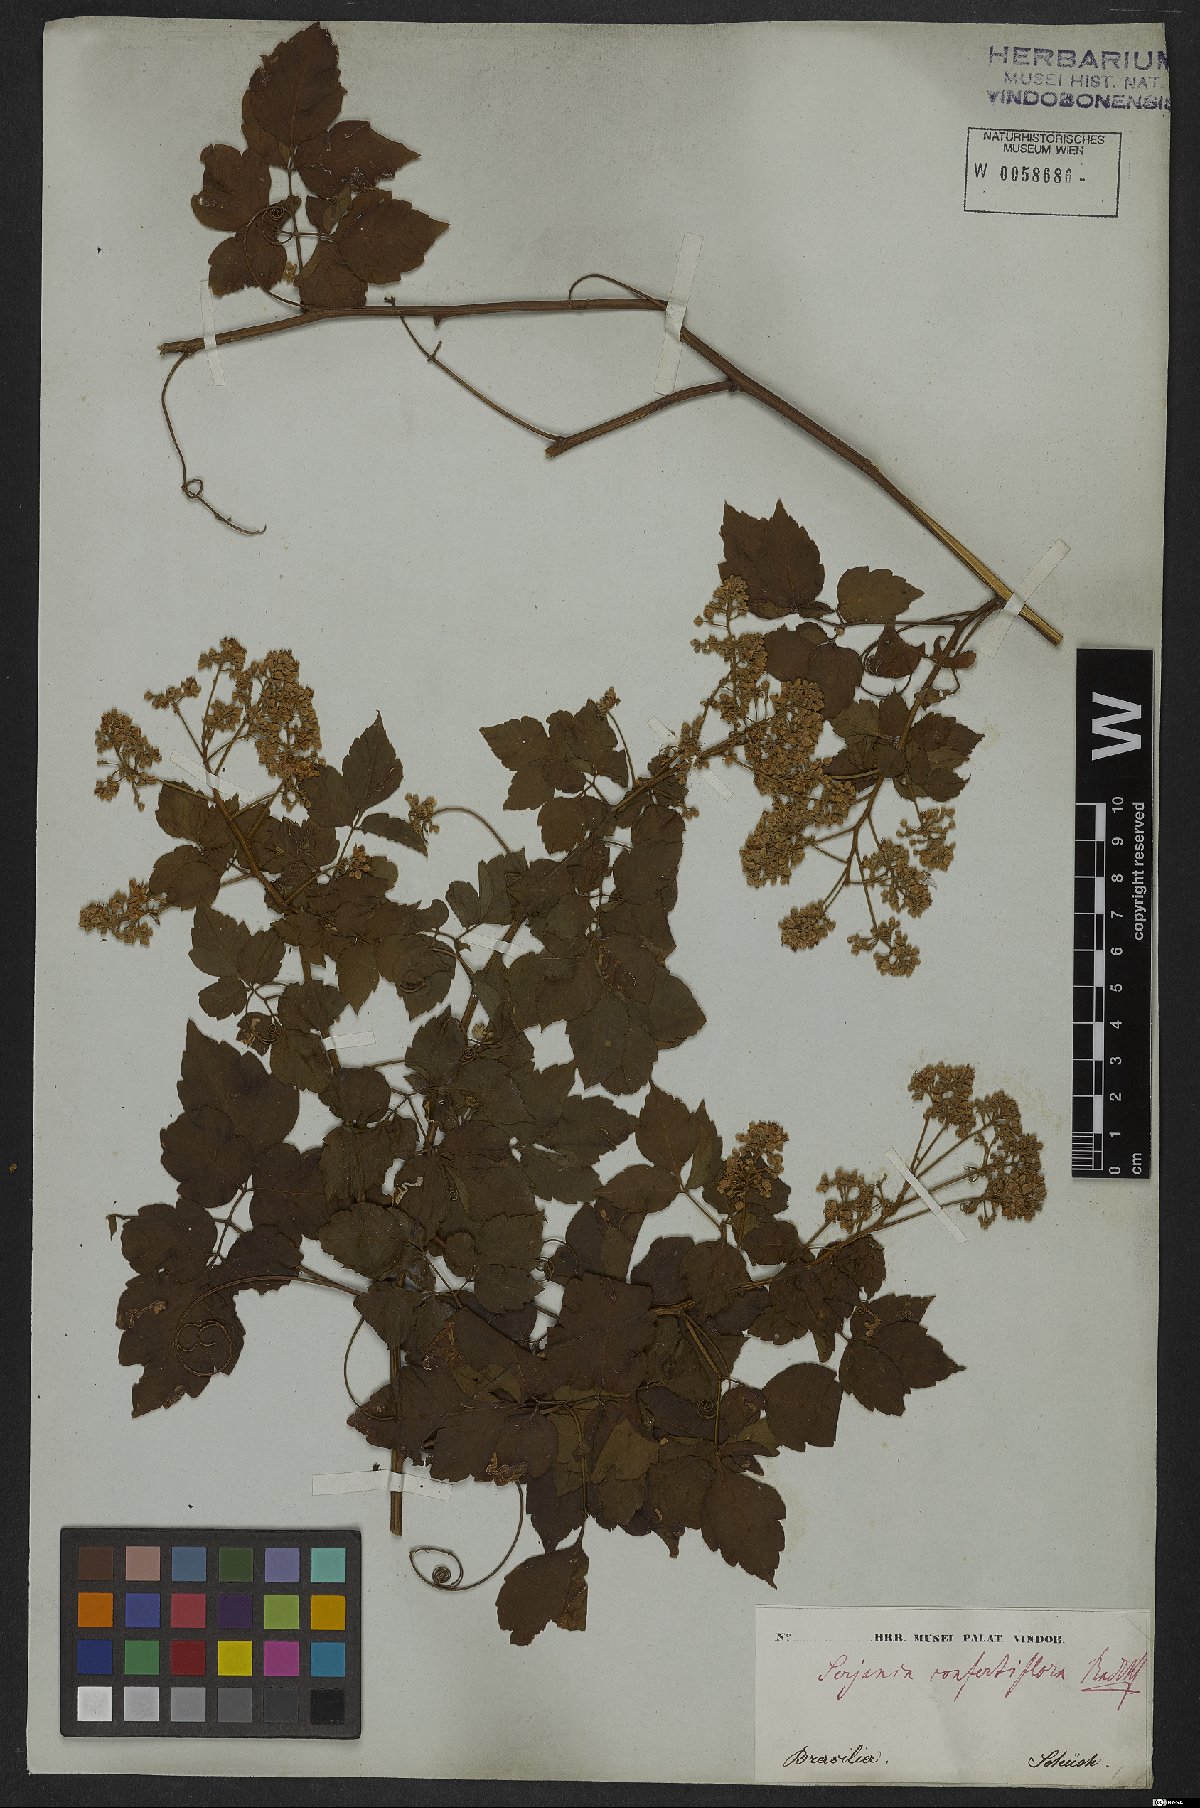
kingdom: Plantae
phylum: Tracheophyta
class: Magnoliopsida
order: Sapindales
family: Sapindaceae
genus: Serjania
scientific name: Serjania confertiflora
